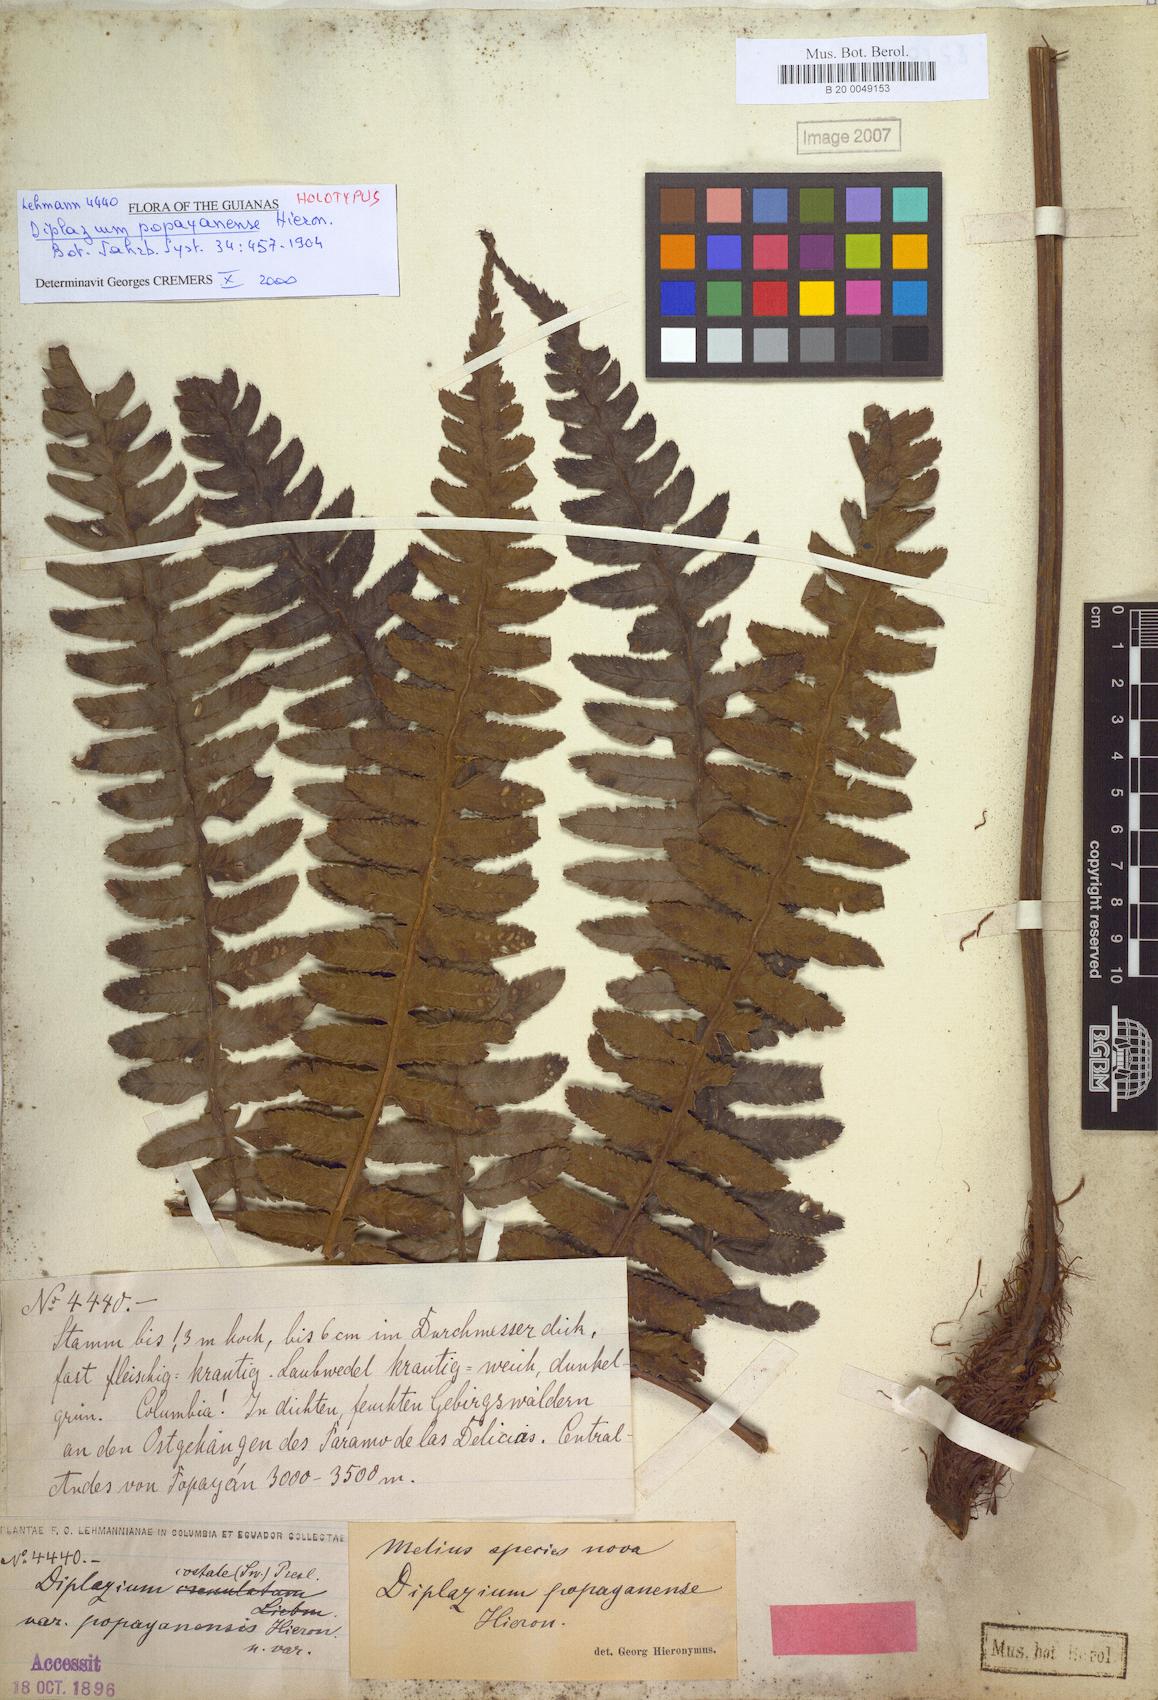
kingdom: Plantae
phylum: Tracheophyta
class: Polypodiopsida
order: Polypodiales
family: Athyriaceae
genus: Diplazium
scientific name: Diplazium popayanense
